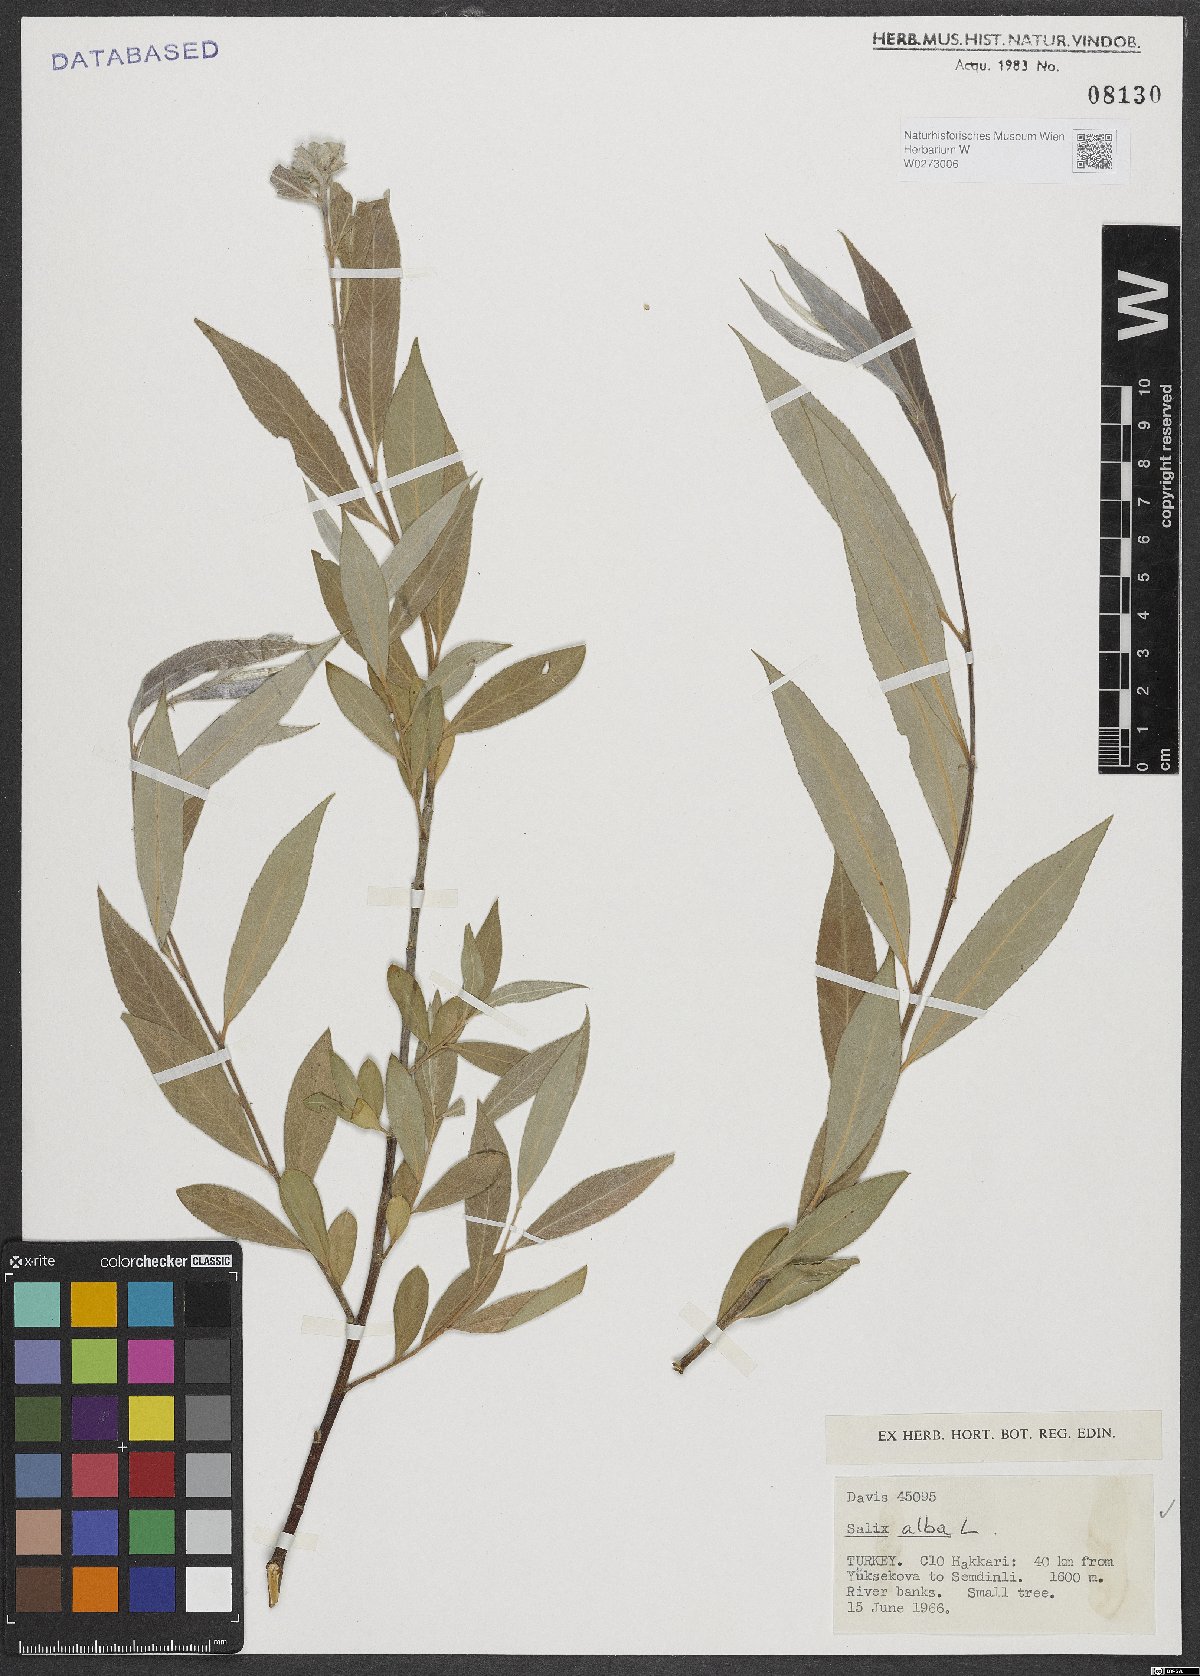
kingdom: Plantae
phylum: Tracheophyta
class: Magnoliopsida
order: Malpighiales
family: Salicaceae
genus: Salix
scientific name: Salix alba
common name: White willow
